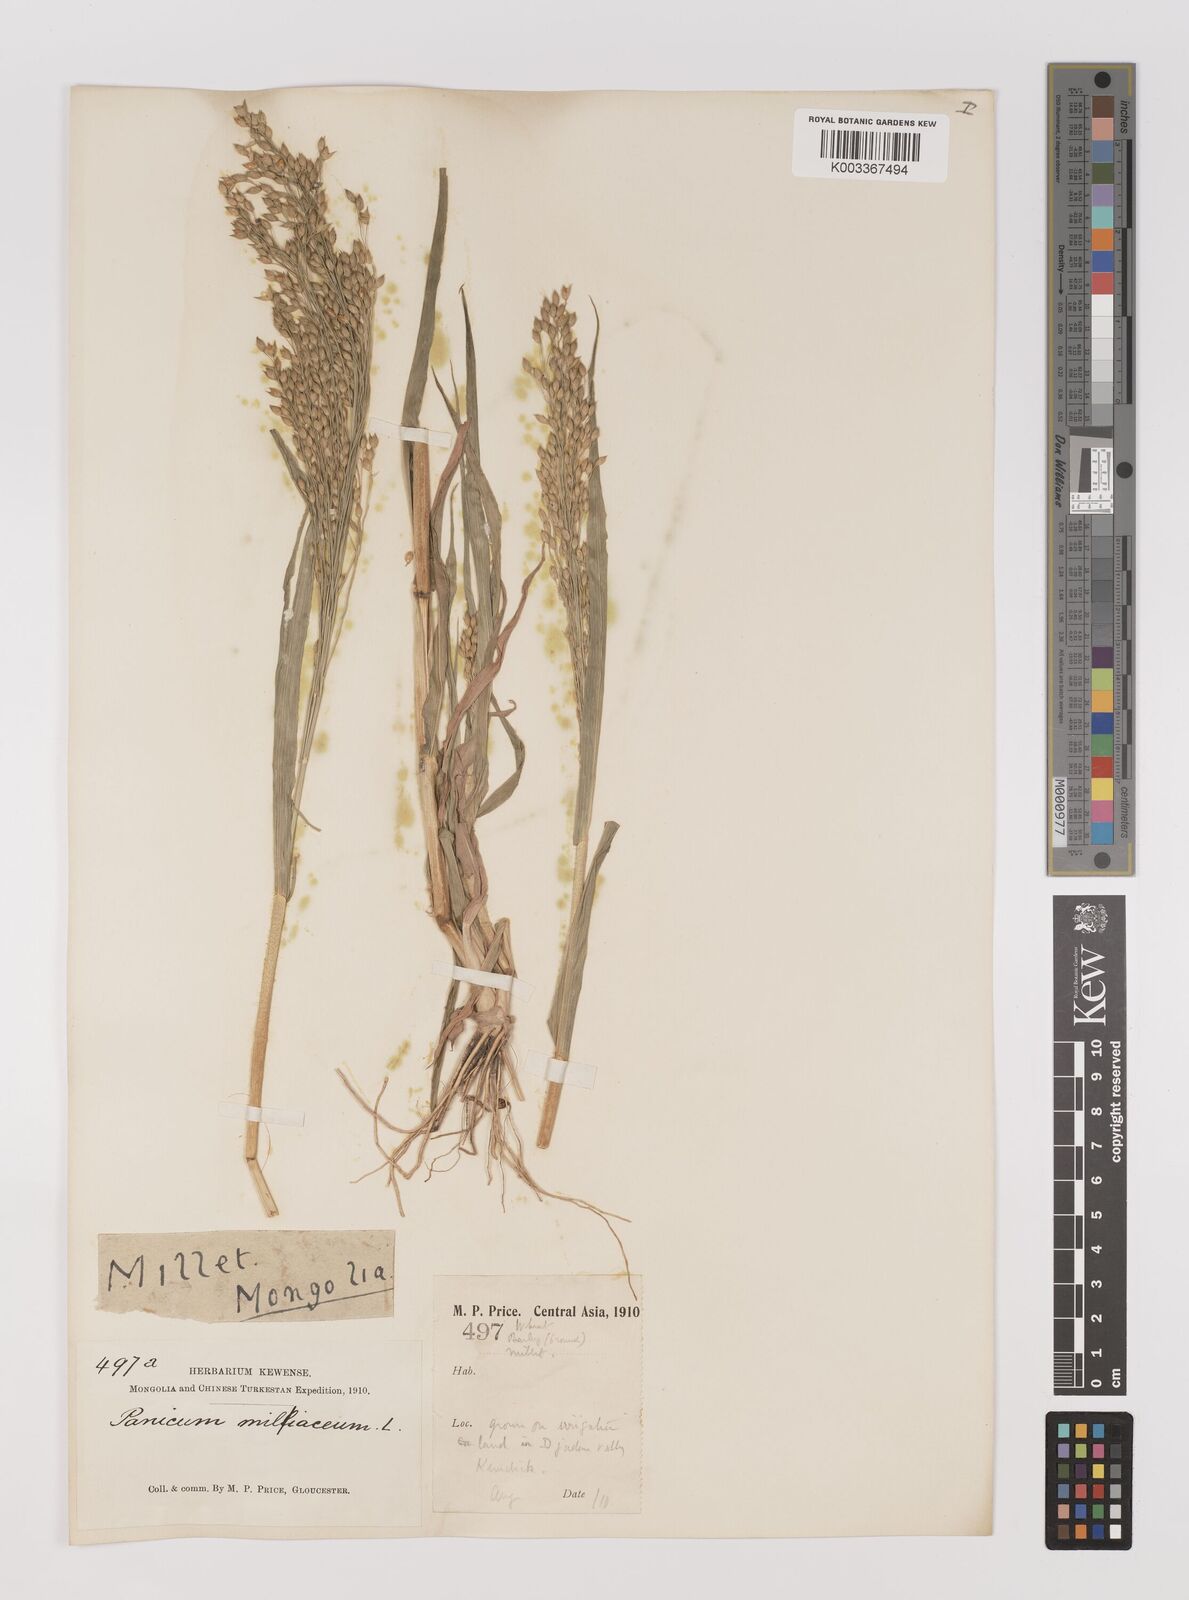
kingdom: Plantae
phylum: Tracheophyta
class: Liliopsida
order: Poales
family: Poaceae
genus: Panicum
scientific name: Panicum miliaceum
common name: Common millet
